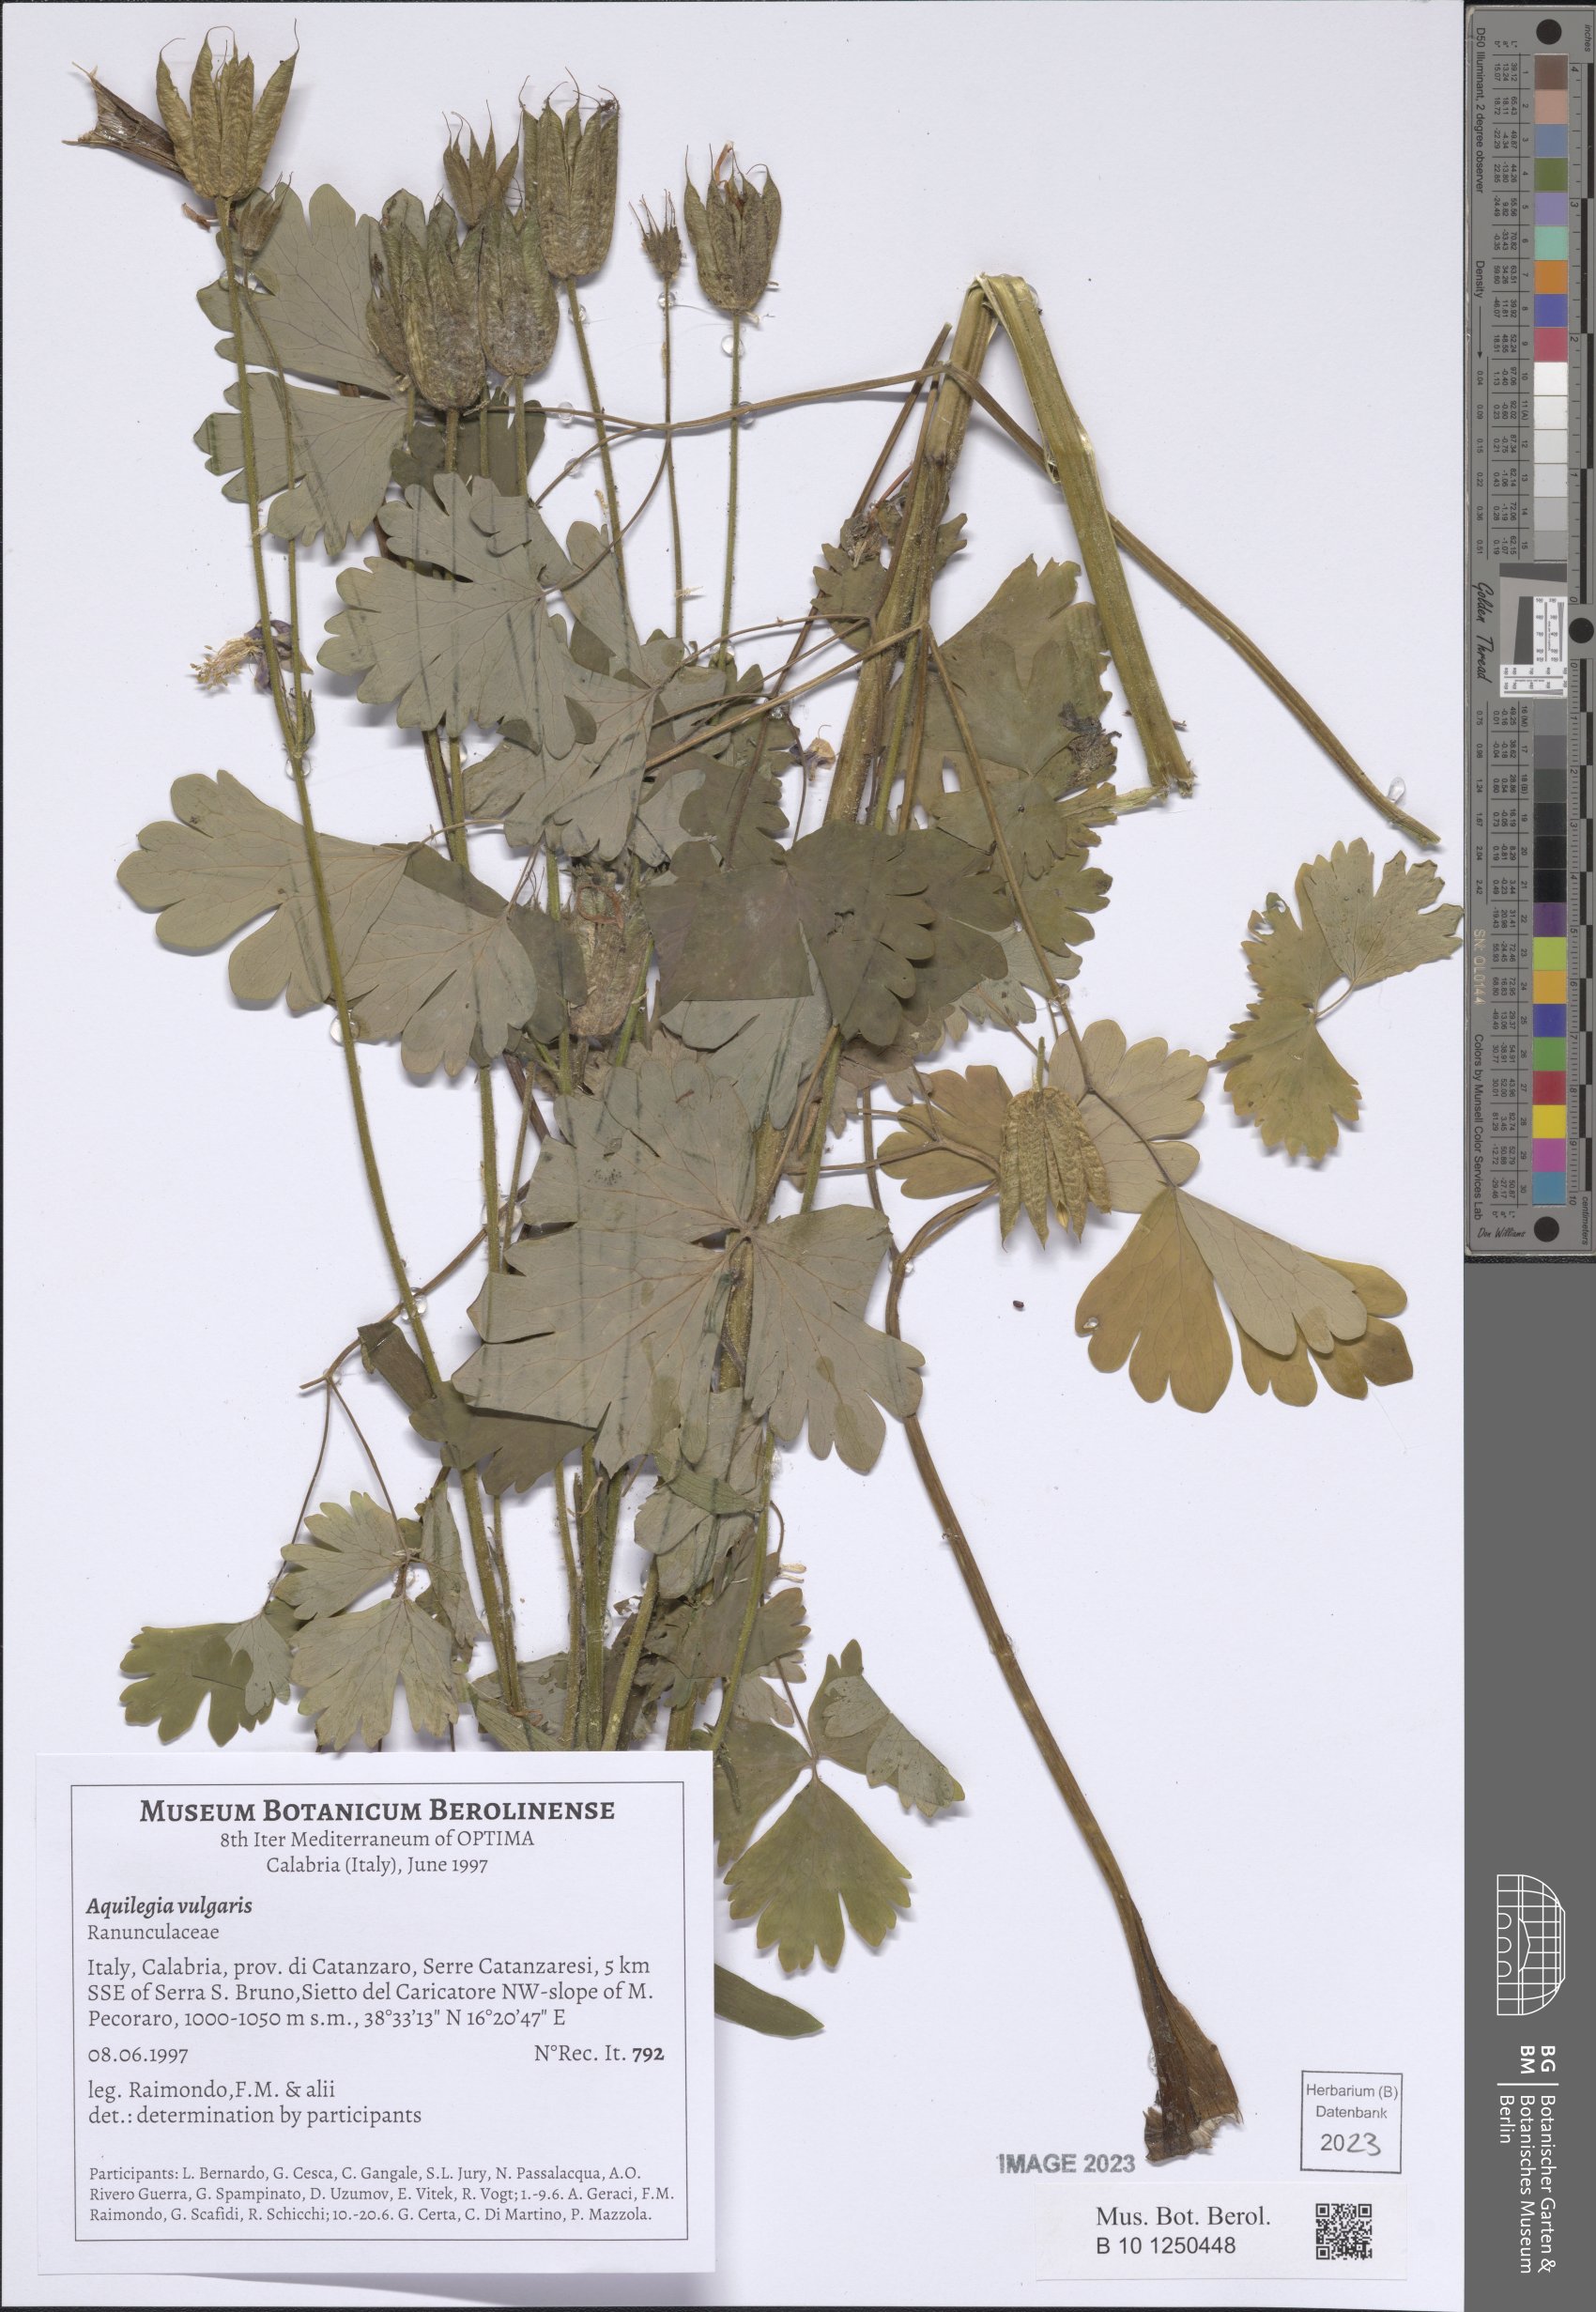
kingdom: Plantae
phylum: Tracheophyta
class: Magnoliopsida
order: Ranunculales
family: Ranunculaceae
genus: Aquilegia
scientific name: Aquilegia vulgaris
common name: Columbine
